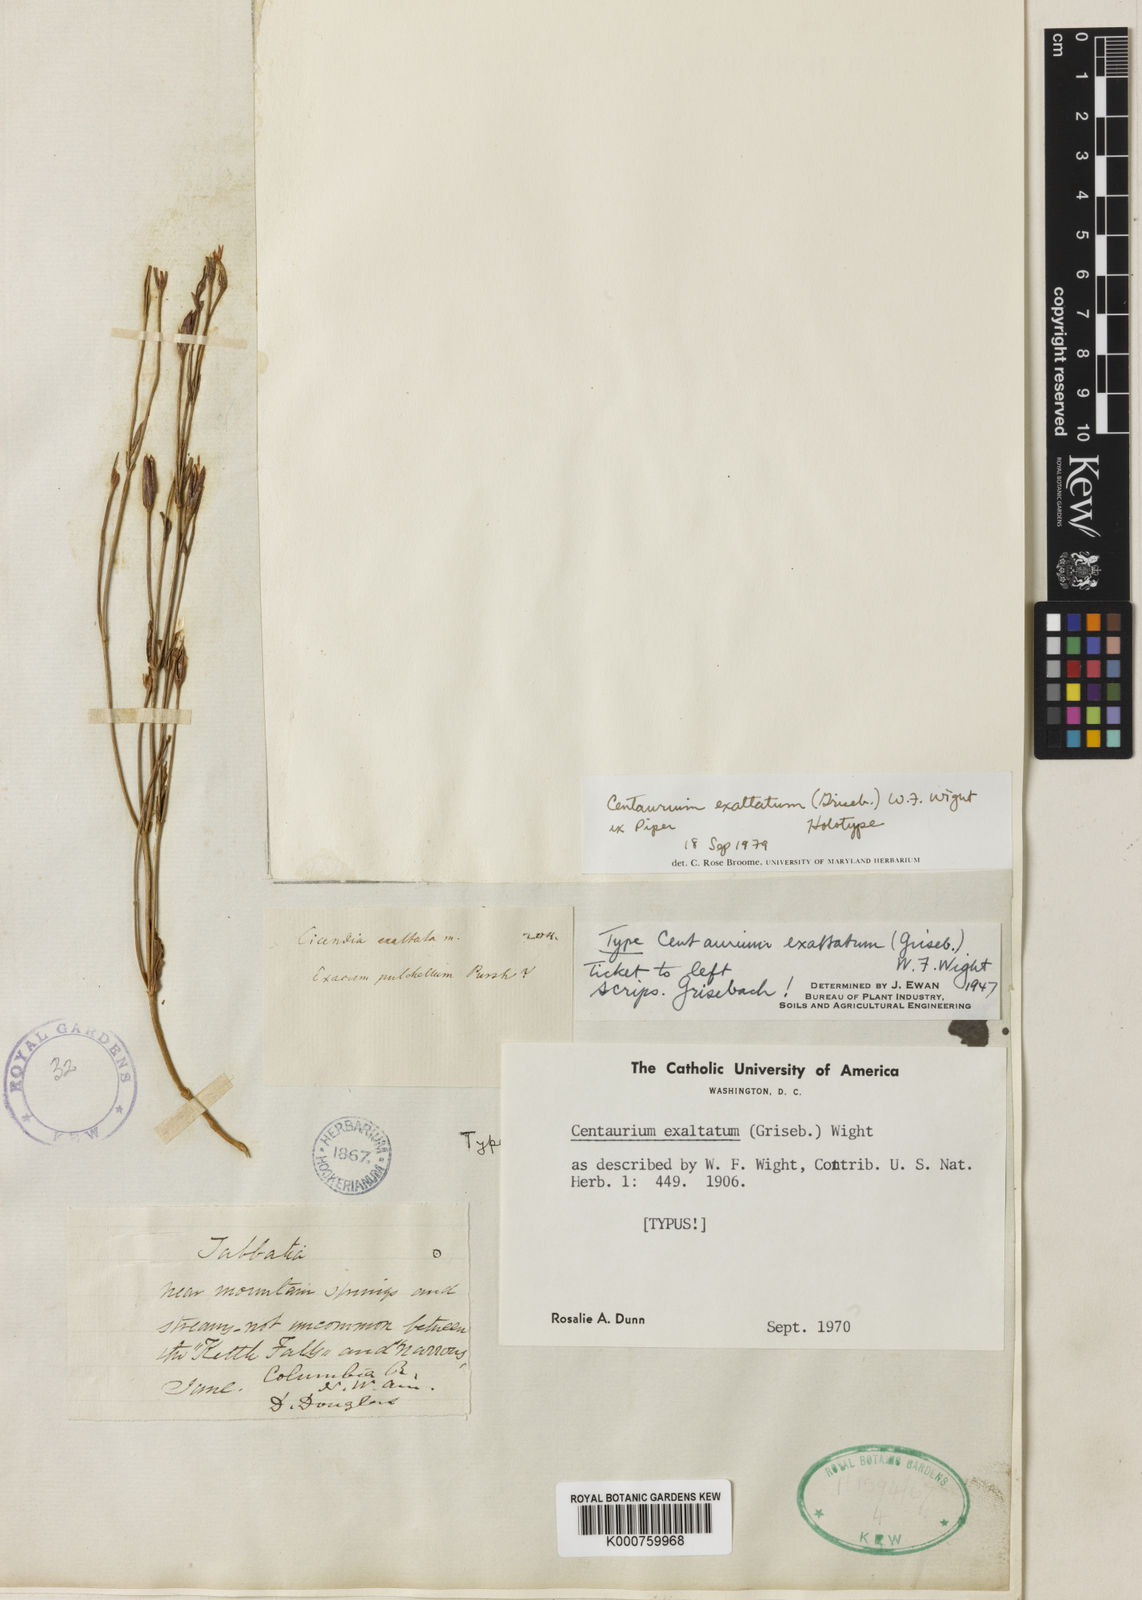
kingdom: Plantae
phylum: Tracheophyta
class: Magnoliopsida
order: Gentianales
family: Gentianaceae
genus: Centaurium
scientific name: Centaurium
